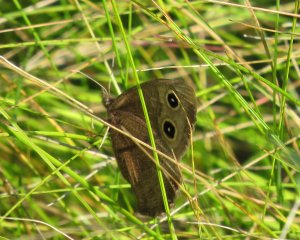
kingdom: Animalia
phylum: Arthropoda
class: Insecta
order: Lepidoptera
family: Nymphalidae
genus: Cercyonis
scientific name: Cercyonis pegala
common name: Common Wood-Nymph
